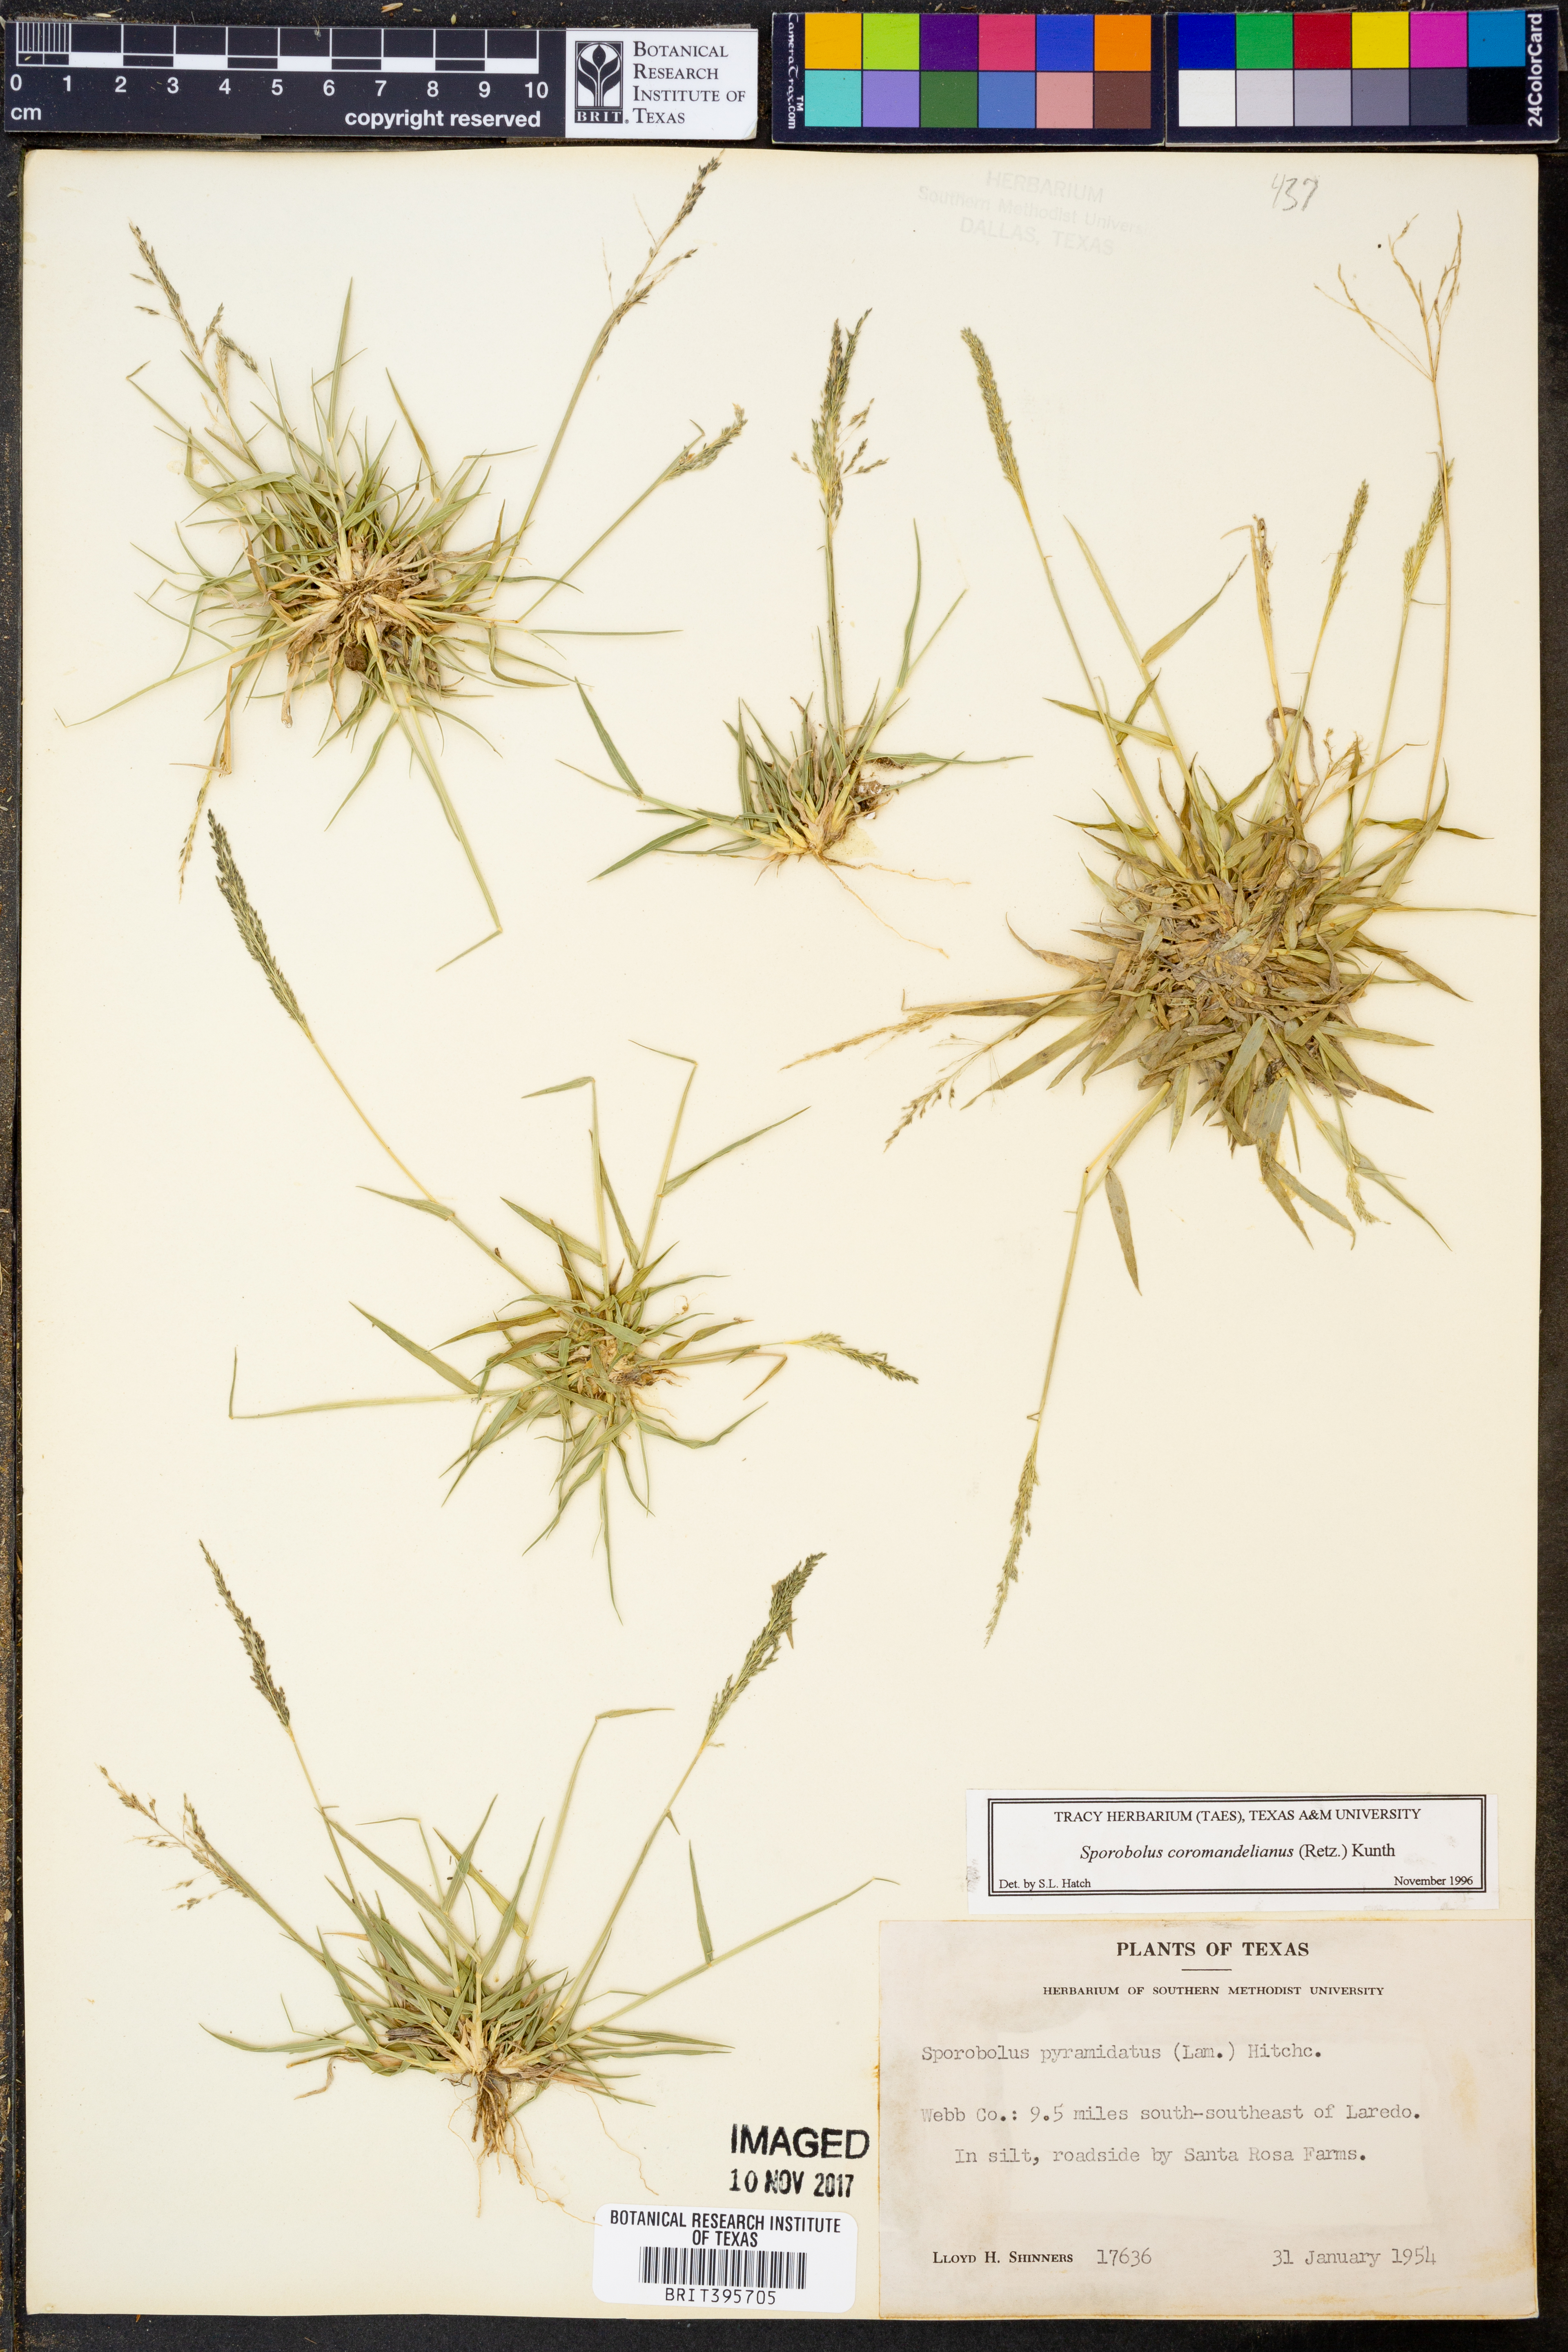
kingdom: Plantae
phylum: Tracheophyta
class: Liliopsida
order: Poales
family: Poaceae
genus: Sporobolus
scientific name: Sporobolus coromandelianus
